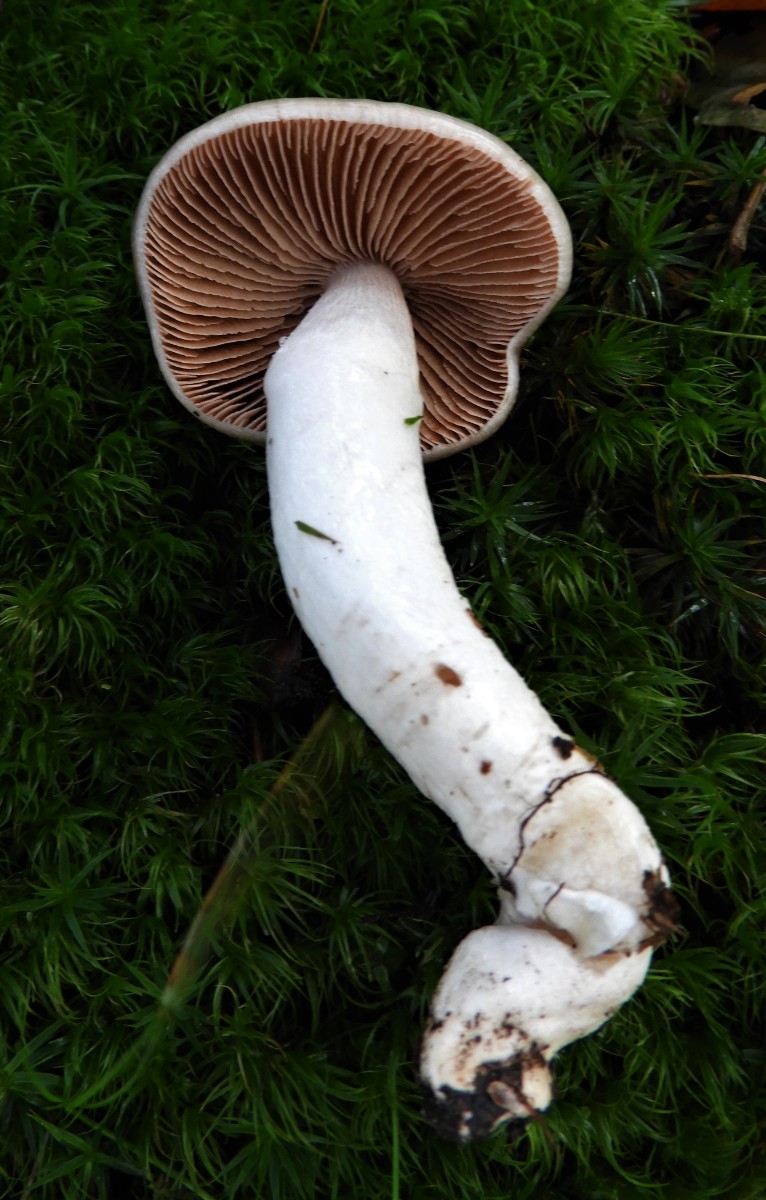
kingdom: Fungi
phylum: Basidiomycota
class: Agaricomycetes
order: Agaricales
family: Cortinariaceae
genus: Cortinarius
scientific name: Cortinarius elatior
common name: høj slørhat
